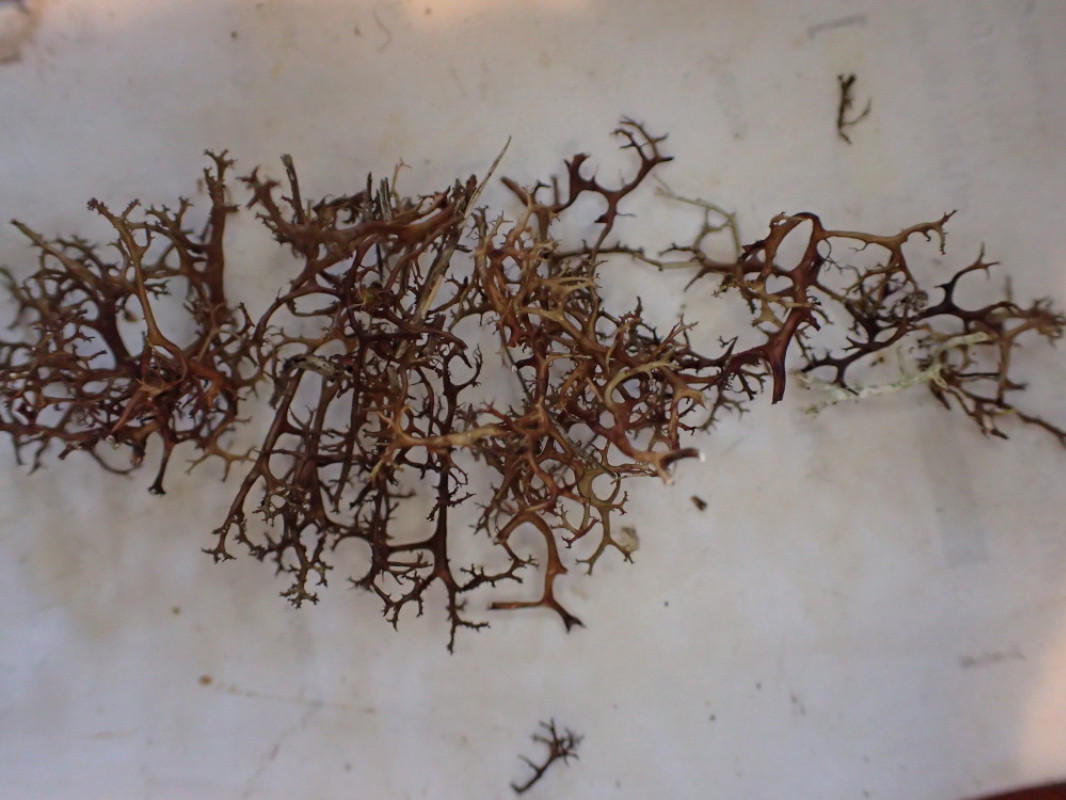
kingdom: Fungi
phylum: Ascomycota
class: Lecanoromycetes
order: Lecanorales
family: Parmeliaceae
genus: Cetraria
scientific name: Cetraria aculeata
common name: grubet tjørnelav
